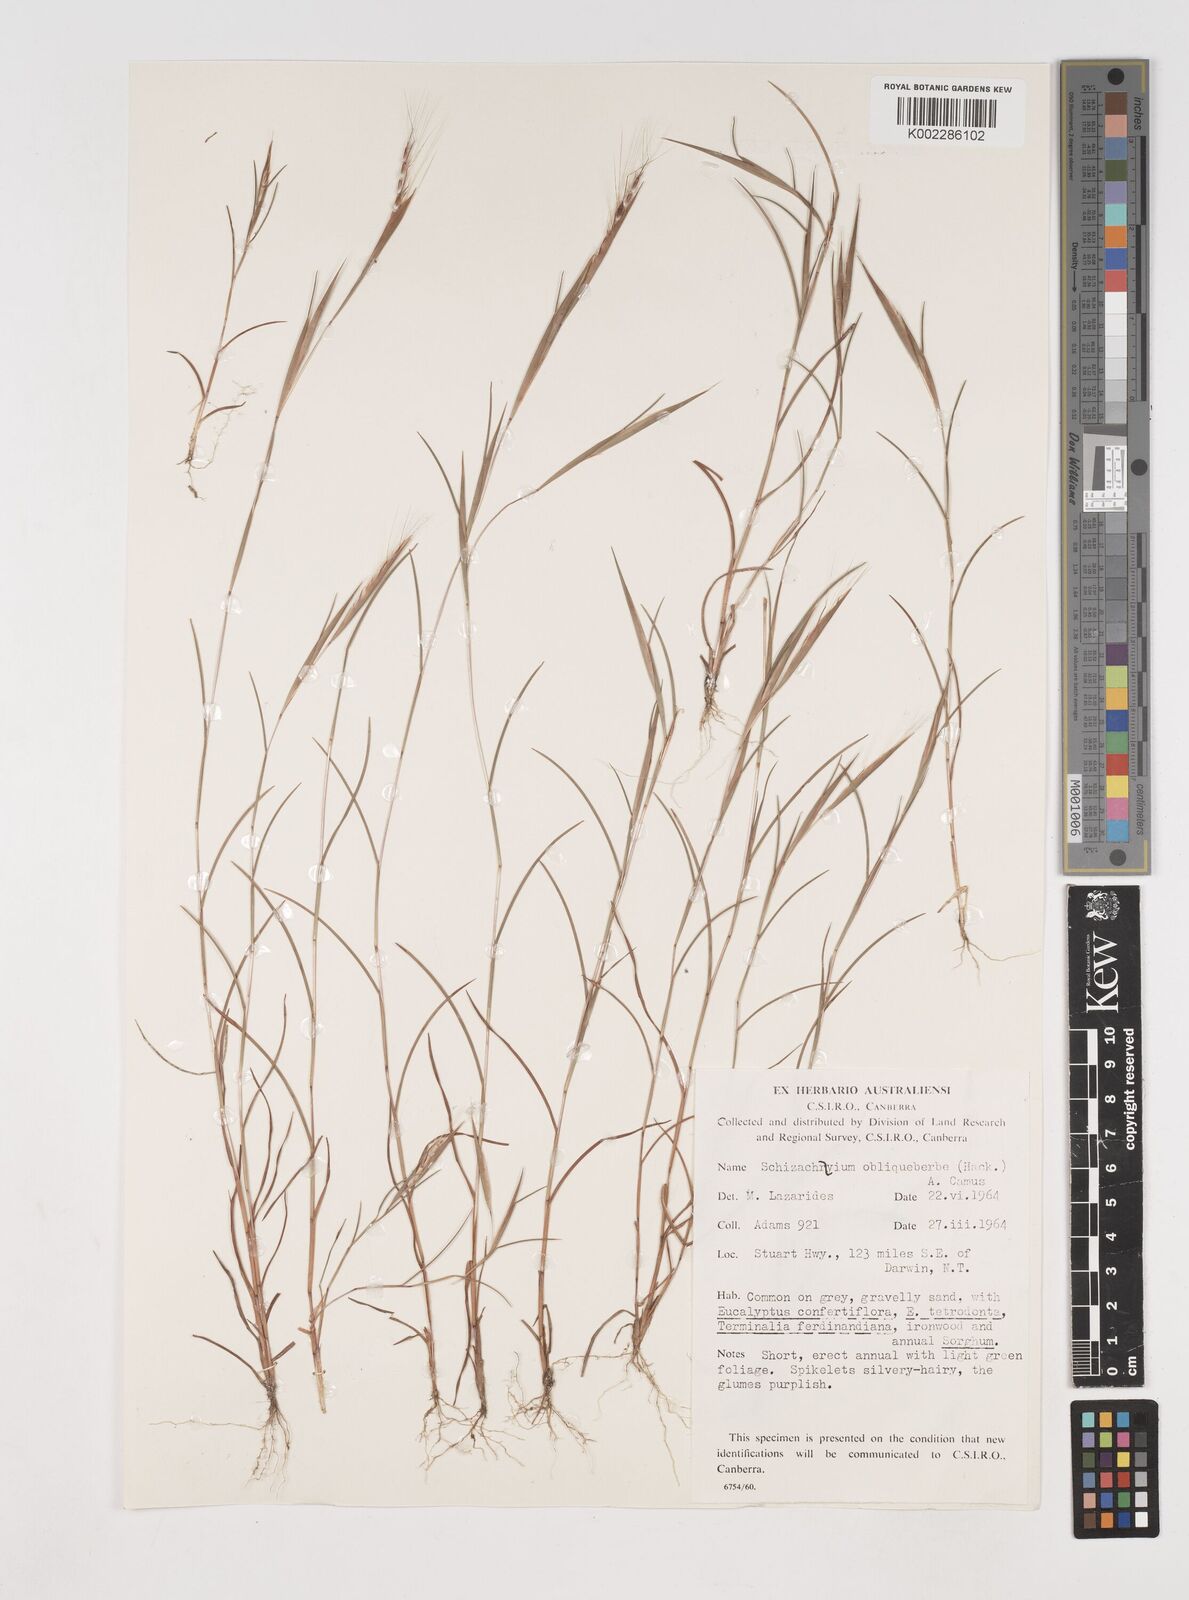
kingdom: Plantae
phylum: Tracheophyta
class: Liliopsida
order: Poales
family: Poaceae
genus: Schizachyrium
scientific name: Schizachyrium fragile
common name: Red spathe grass
